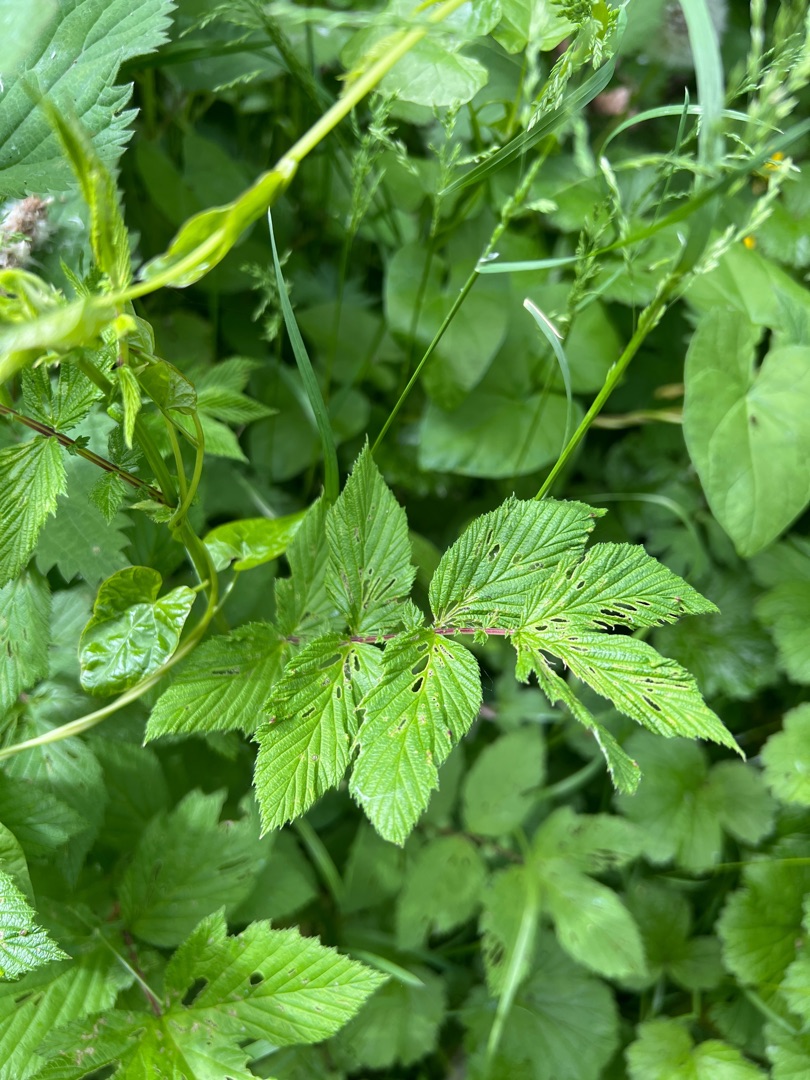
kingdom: Plantae
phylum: Tracheophyta
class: Magnoliopsida
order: Rosales
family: Rosaceae
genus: Filipendula
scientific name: Filipendula ulmaria
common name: Almindelig mjødurt
